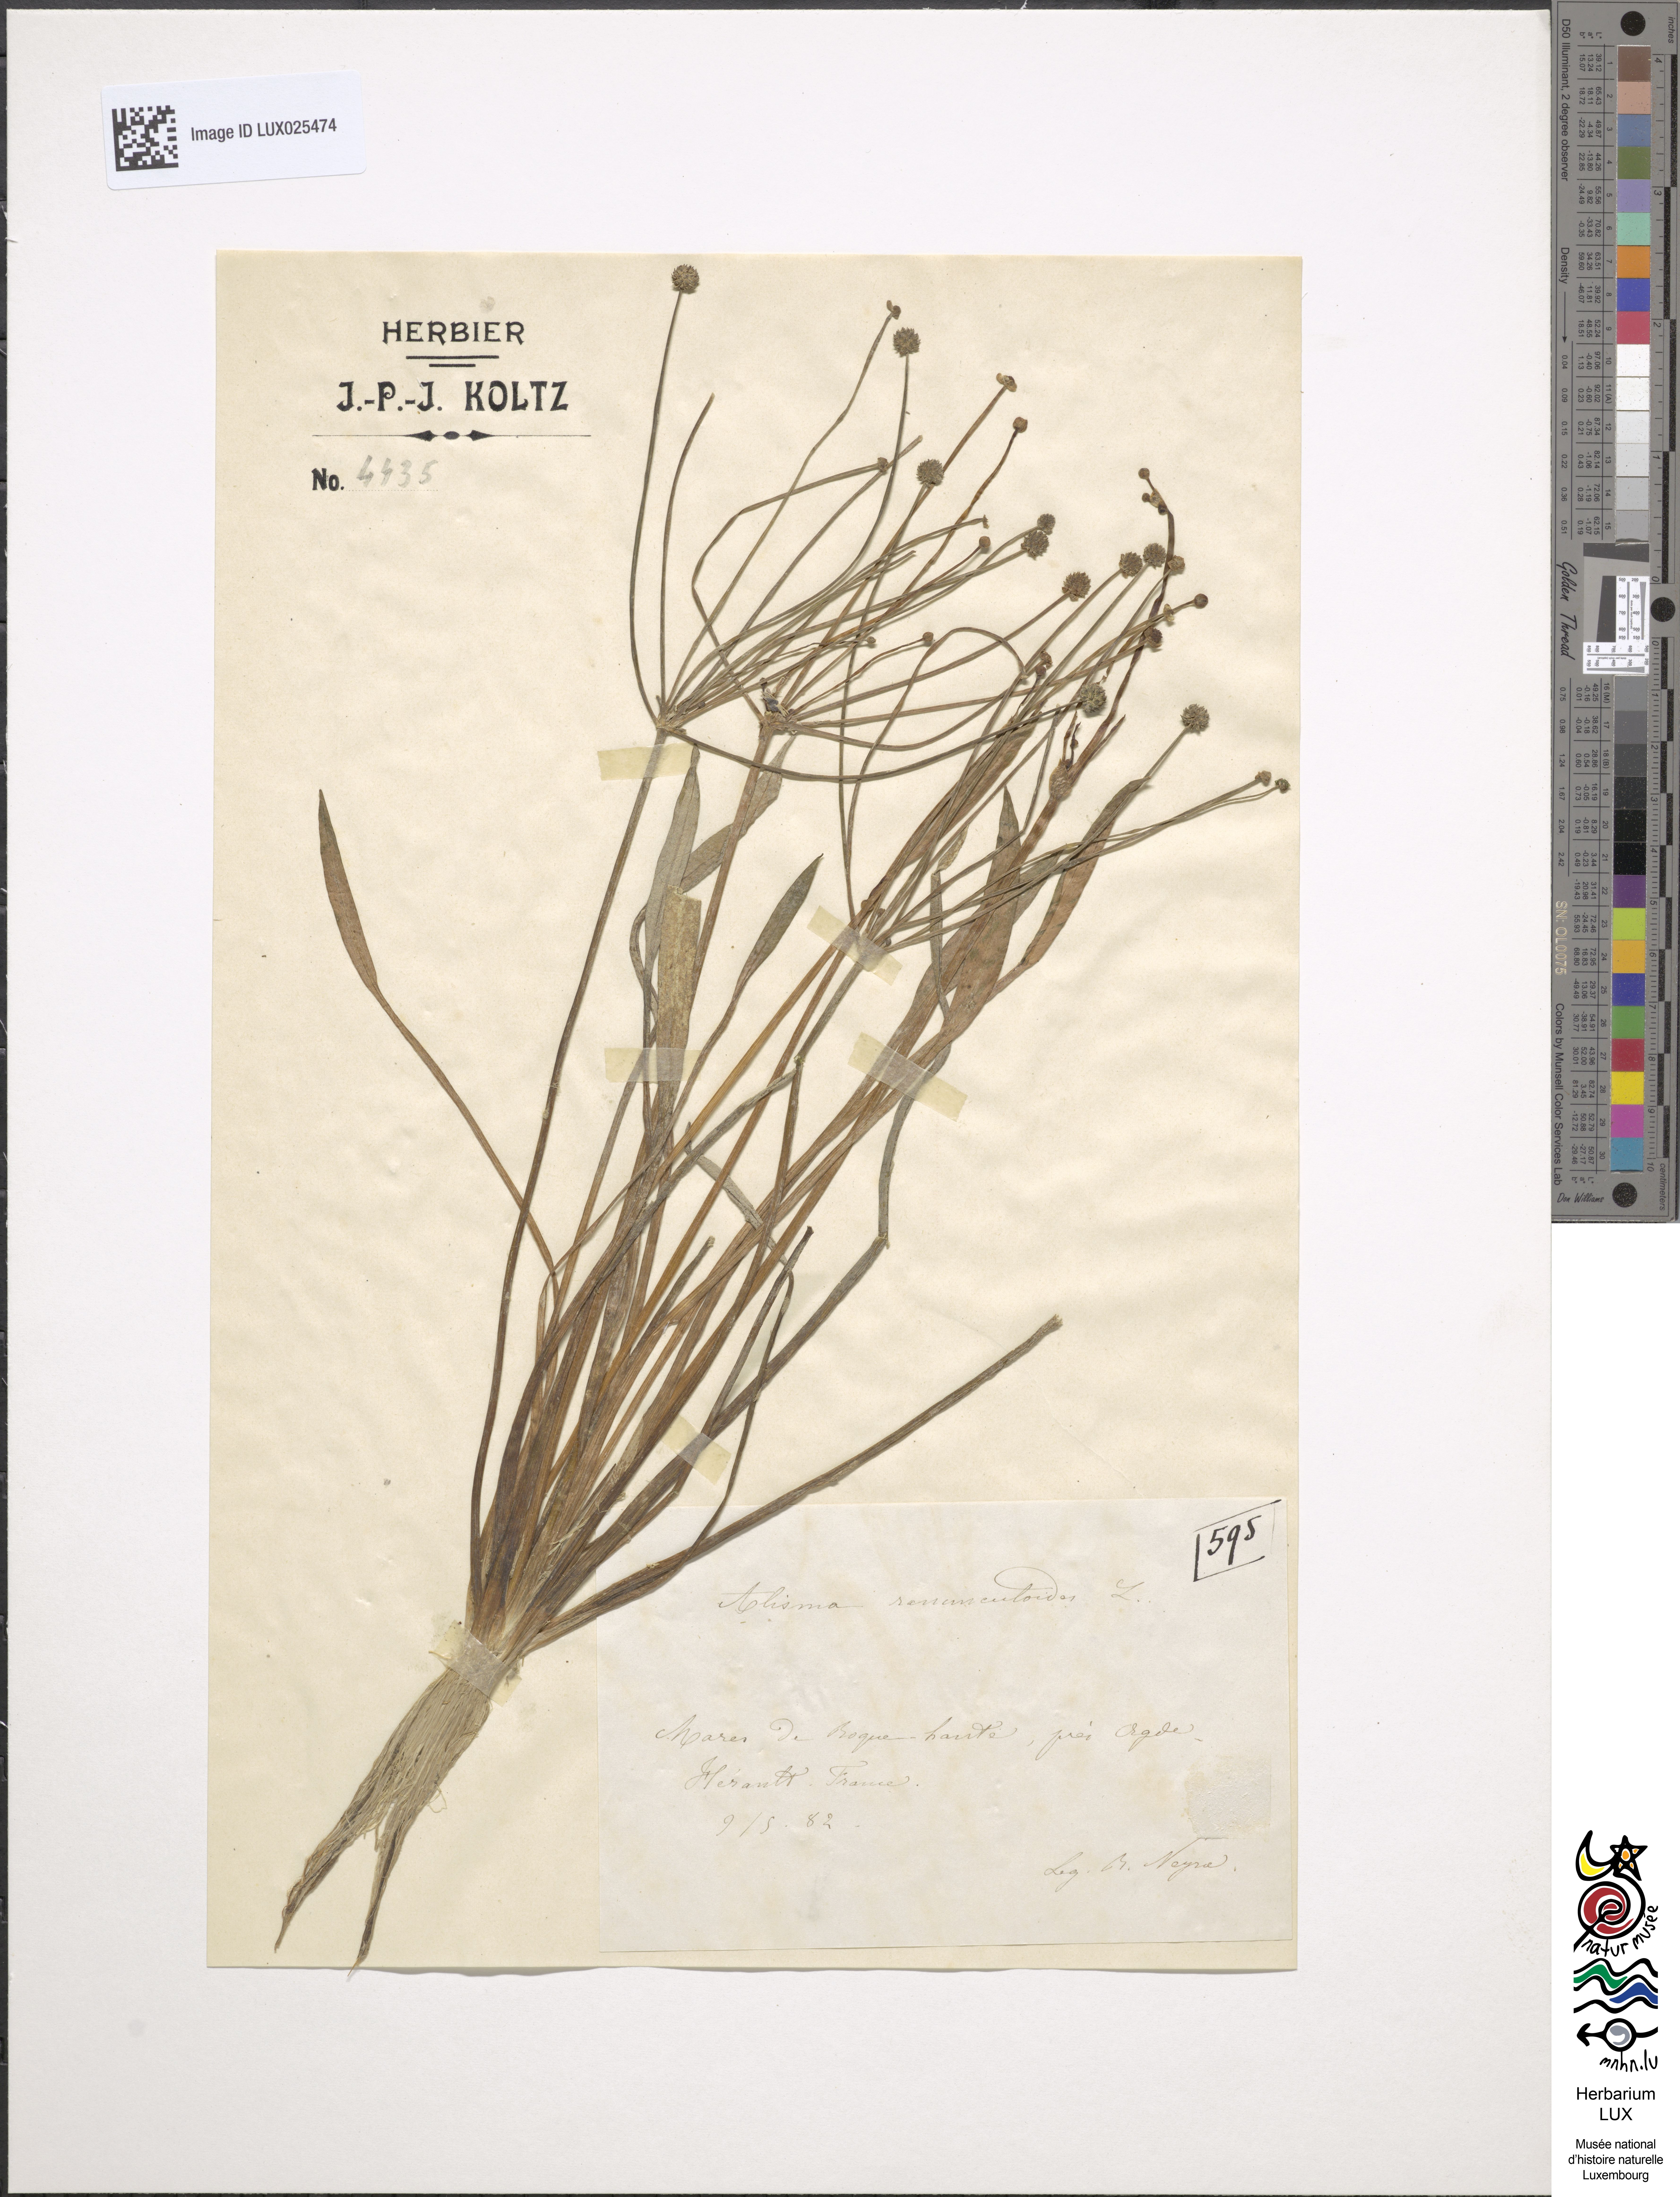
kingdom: Plantae
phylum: Tracheophyta
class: Liliopsida
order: Alismatales
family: Alismataceae
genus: Baldellia
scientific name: Baldellia ranunculoides
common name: Lesser water-plantain
